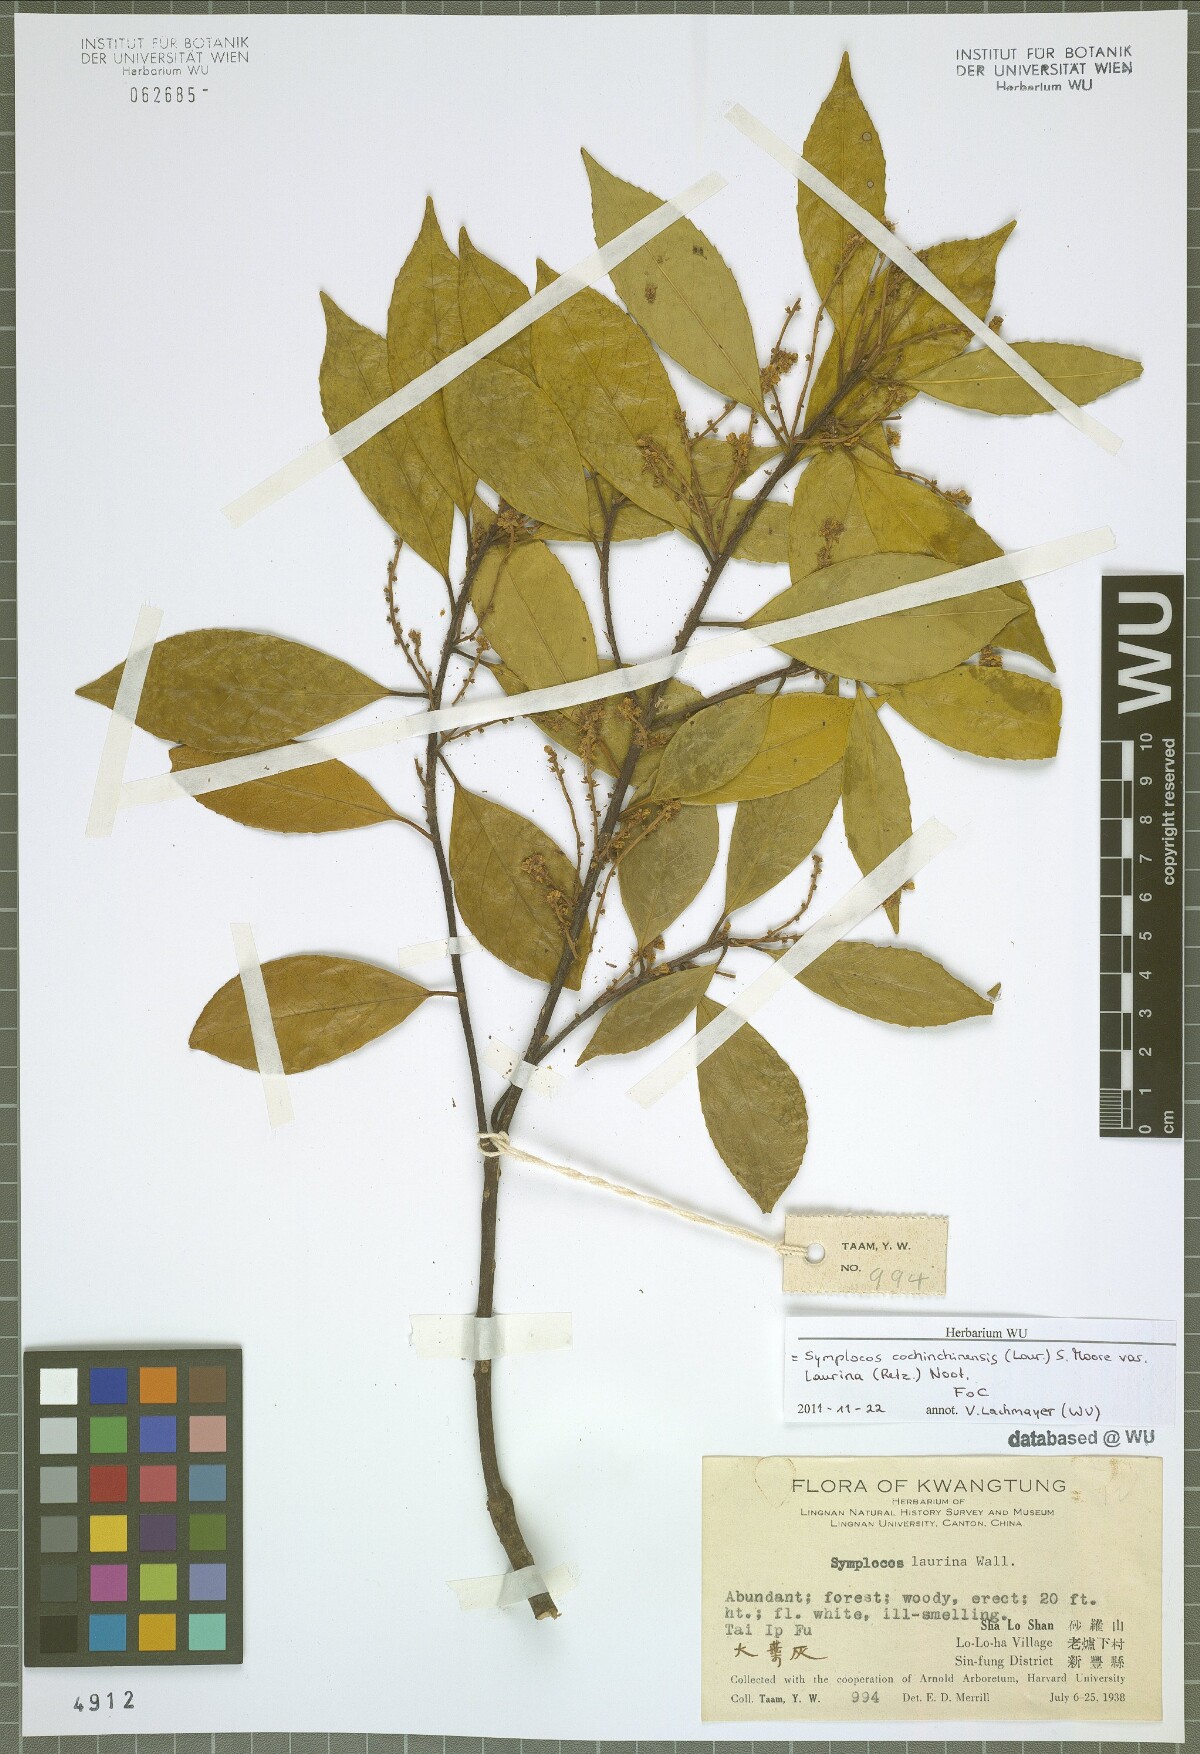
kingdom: Plantae
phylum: Tracheophyta
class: Magnoliopsida
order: Ericales
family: Symplocaceae
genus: Symplocos
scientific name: Symplocos acuminata
